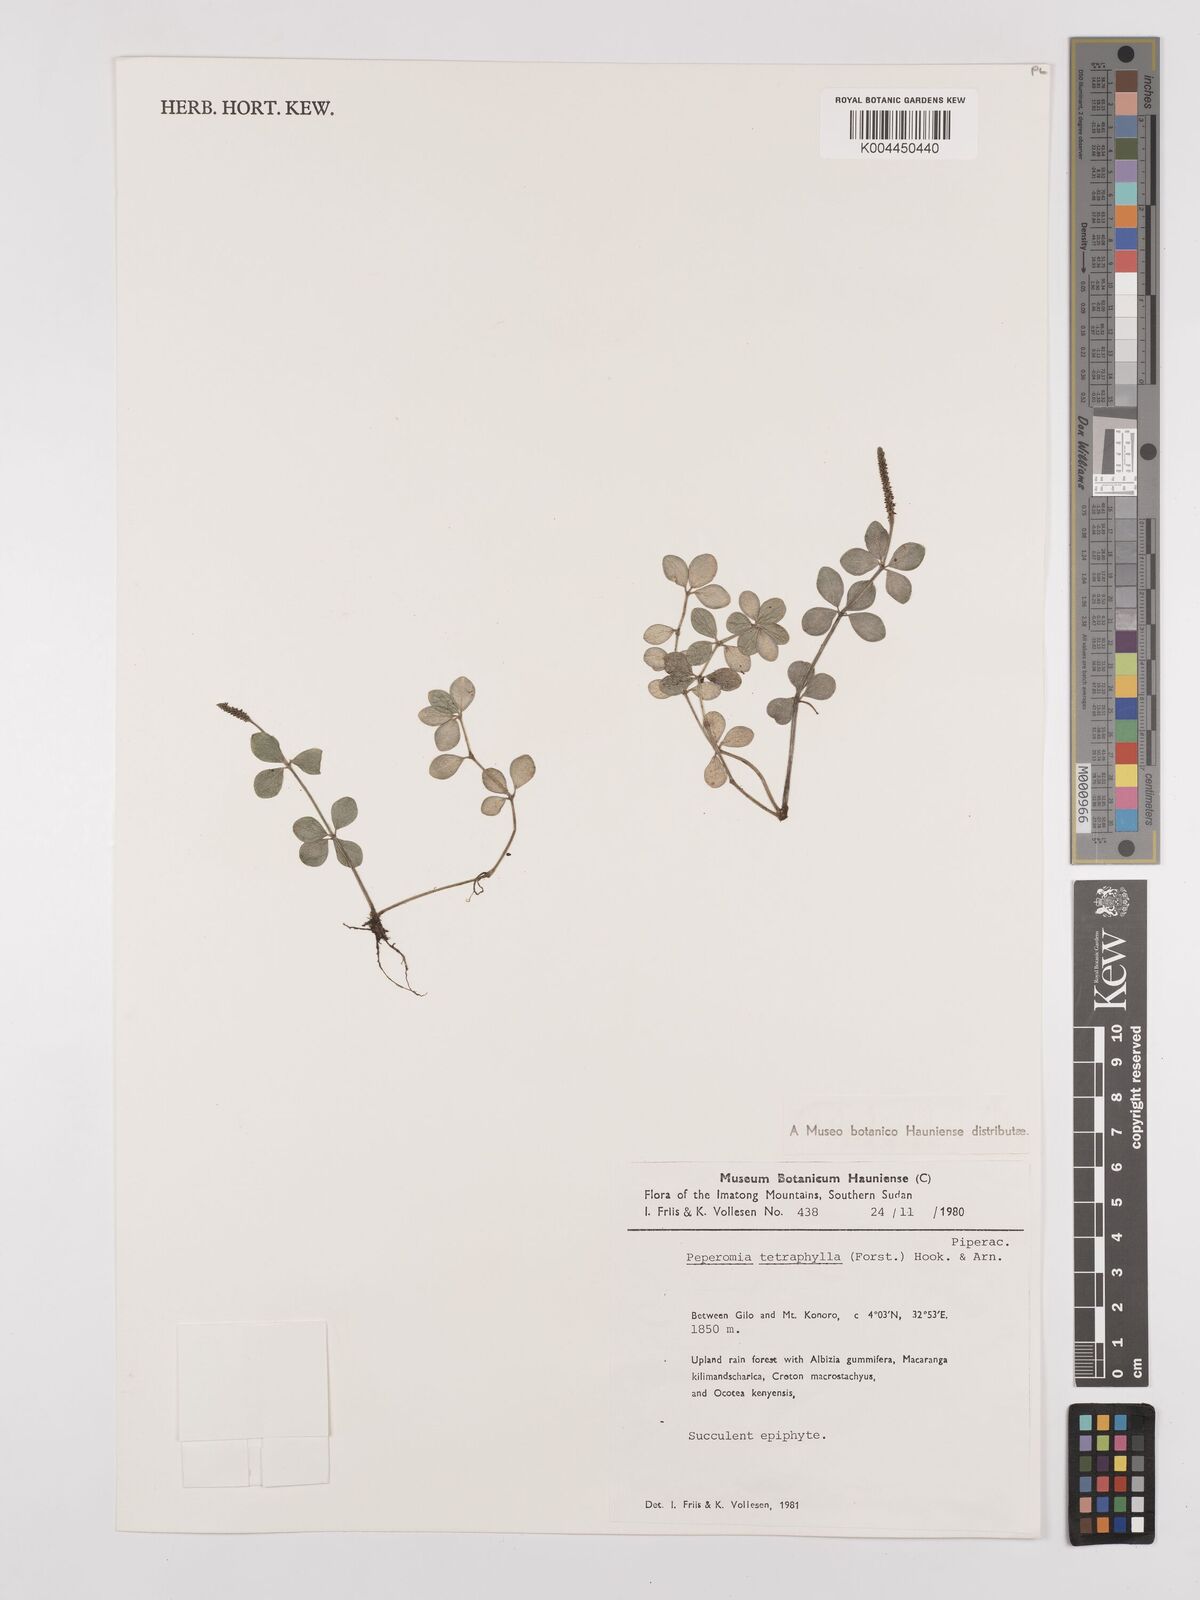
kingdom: Plantae
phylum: Tracheophyta
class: Magnoliopsida
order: Piperales
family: Piperaceae
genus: Peperomia
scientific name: Peperomia tetraphylla
